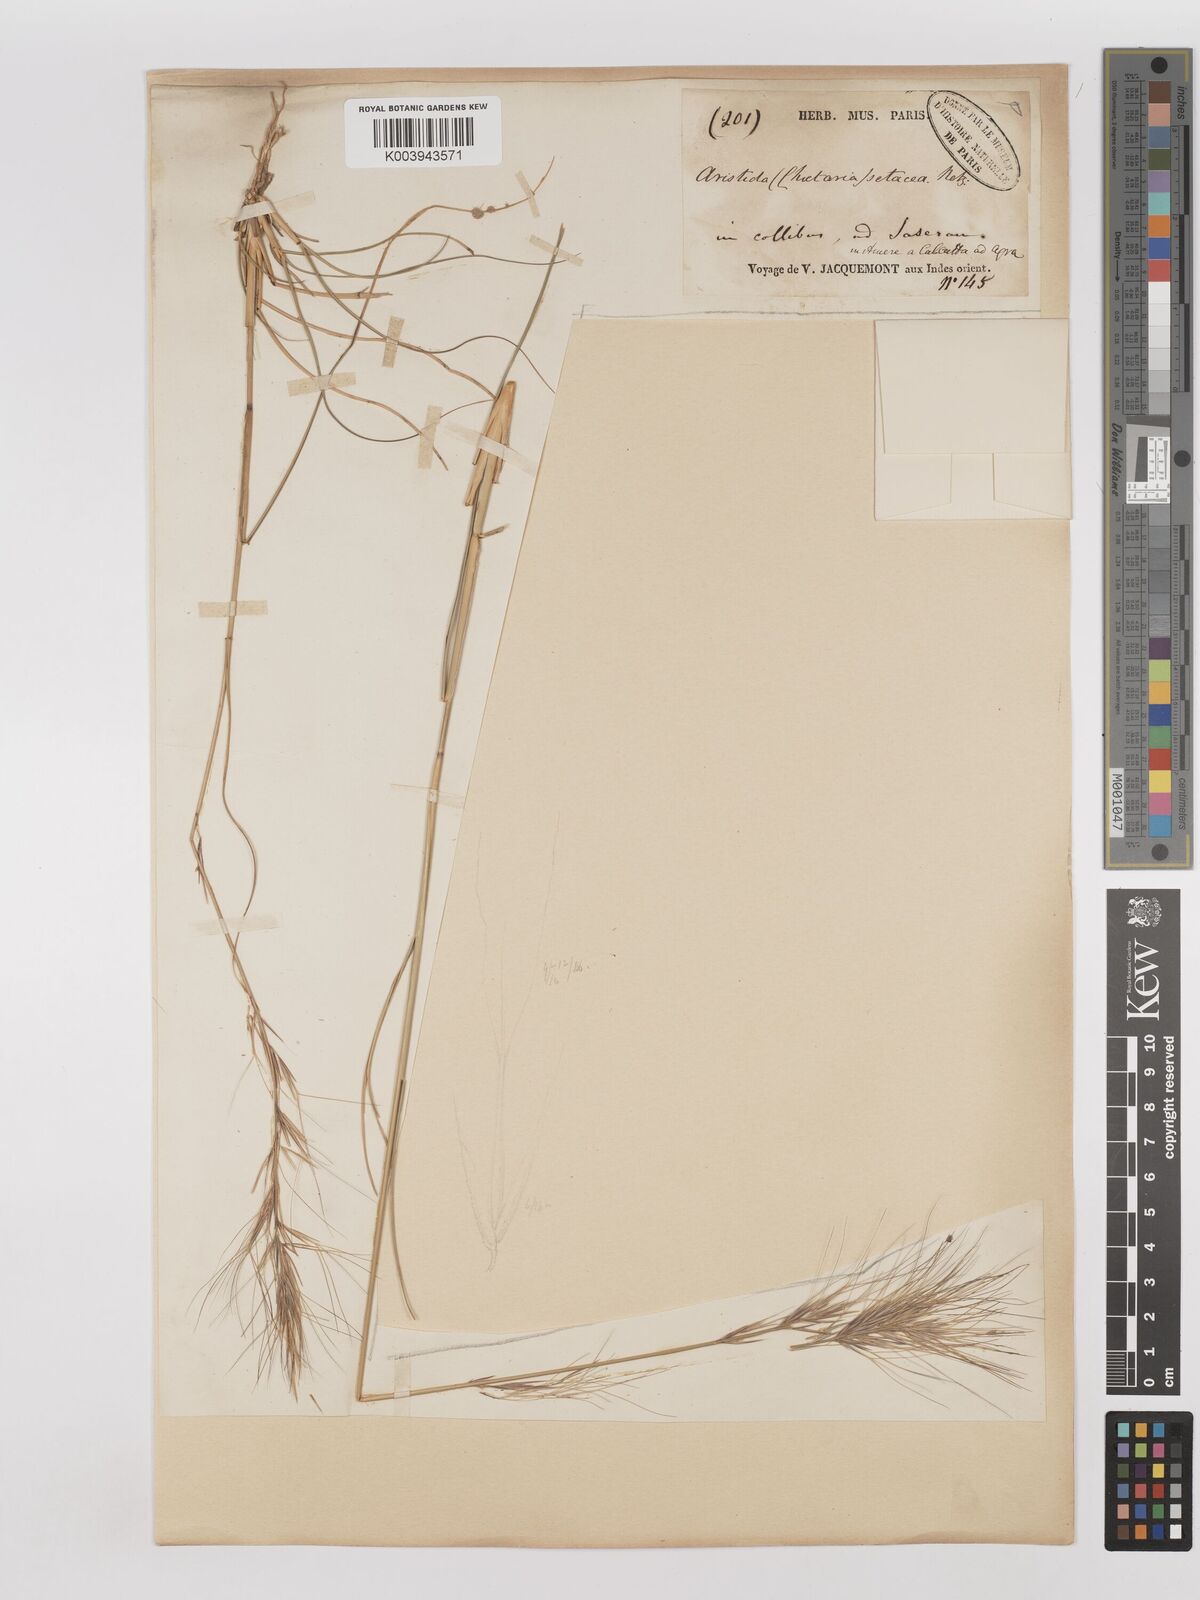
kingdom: Plantae
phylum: Tracheophyta
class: Liliopsida
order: Poales
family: Poaceae
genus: Aristida
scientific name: Aristida setacea
